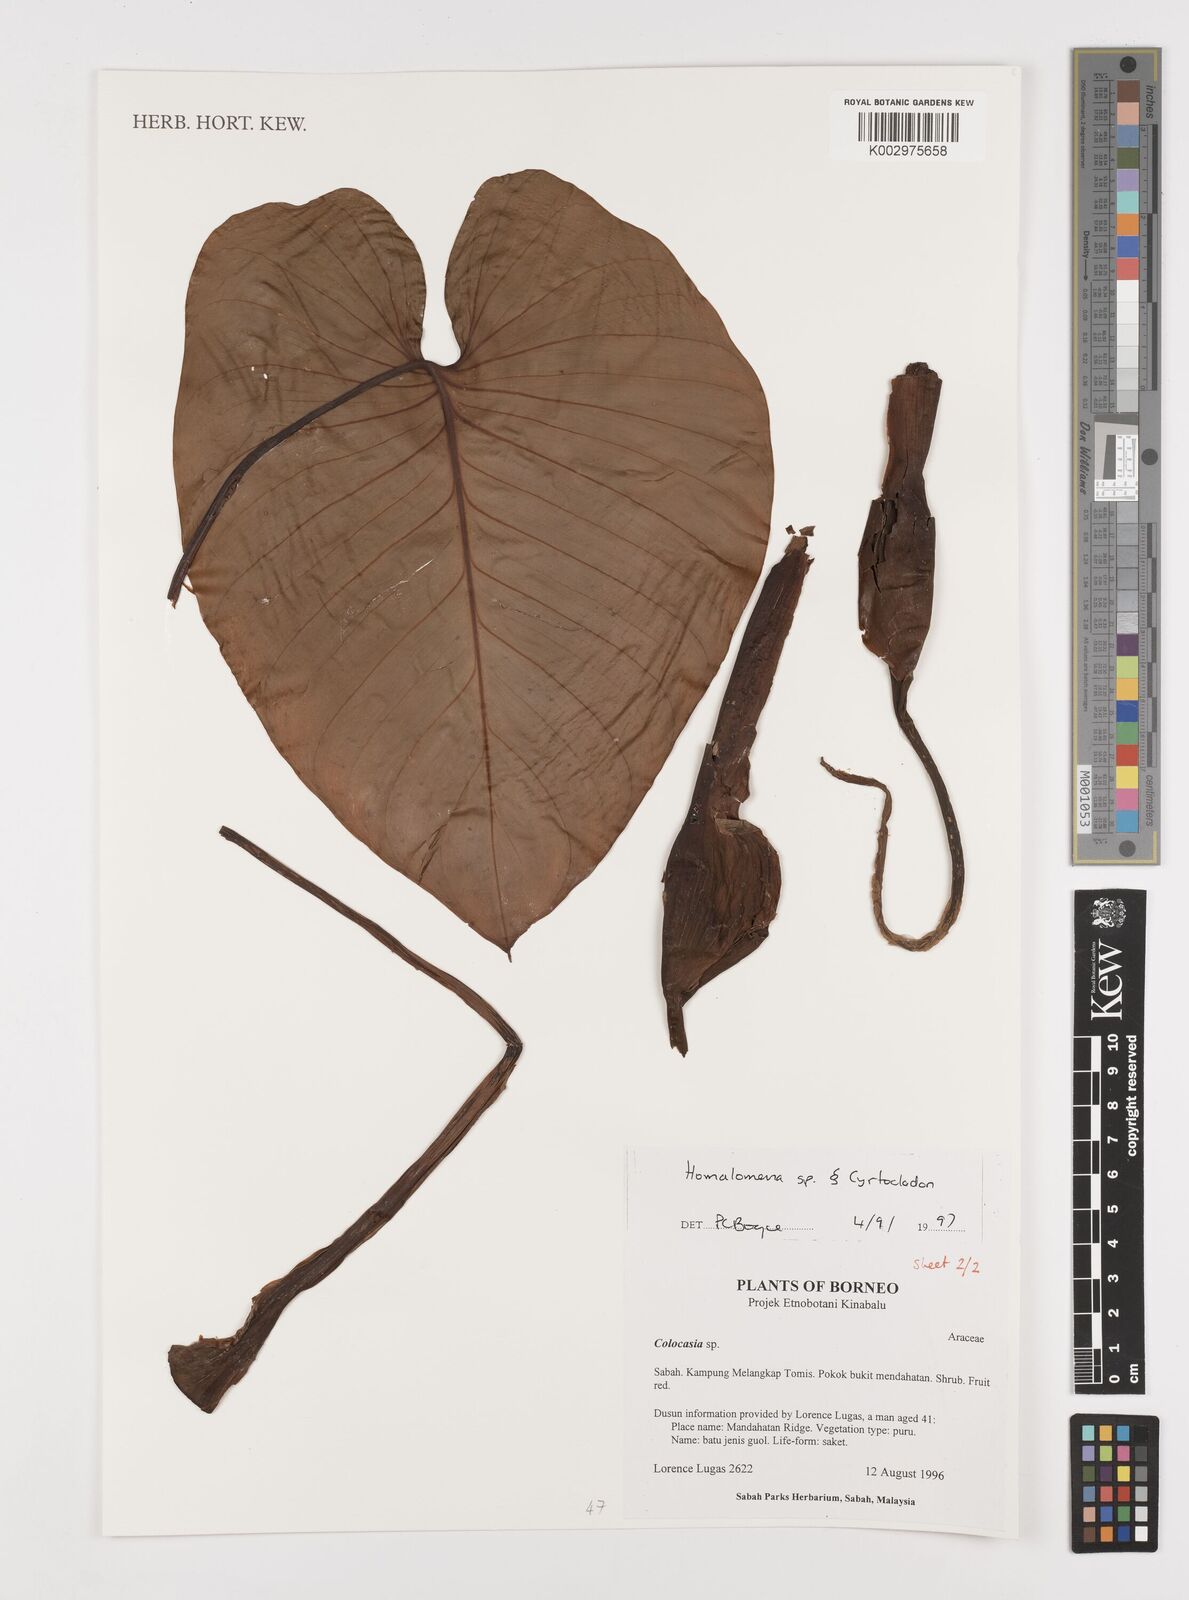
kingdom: Plantae
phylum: Tracheophyta
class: Liliopsida
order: Alismatales
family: Araceae
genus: Homalomena
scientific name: Homalomena
